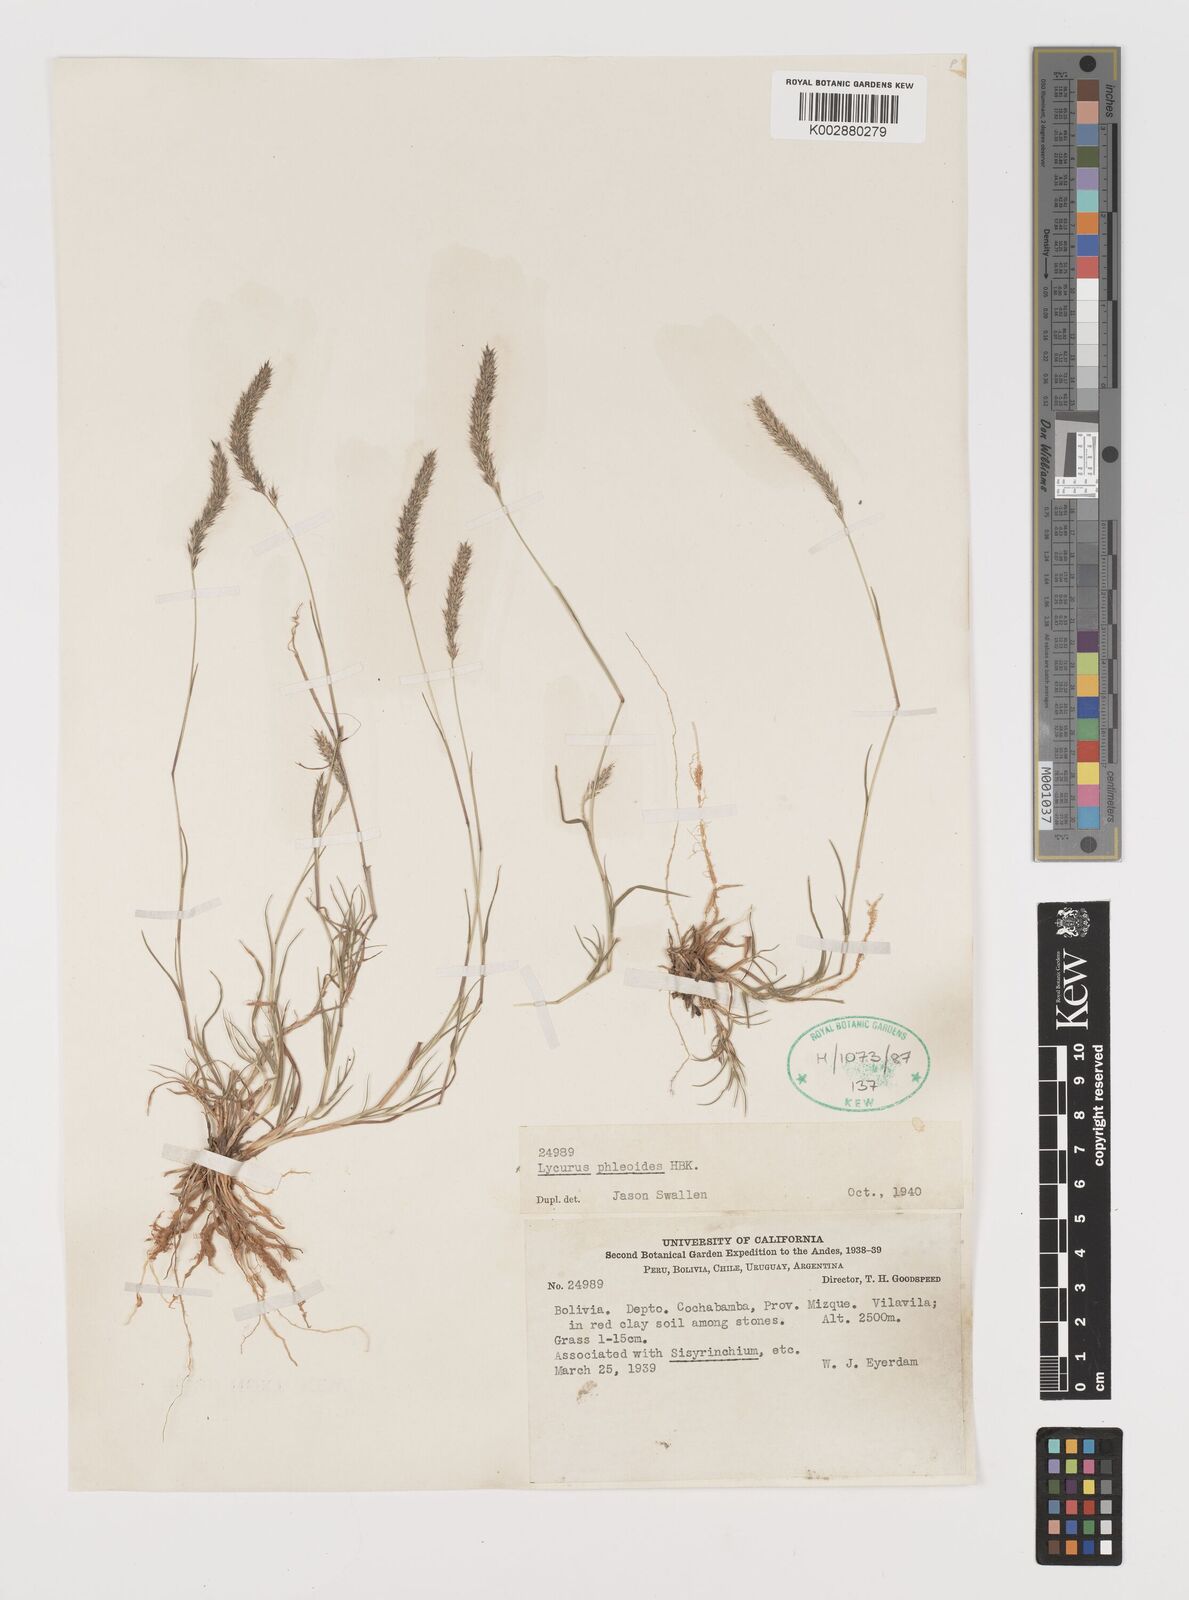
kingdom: Plantae
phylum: Tracheophyta
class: Liliopsida
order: Poales
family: Poaceae
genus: Muhlenbergia
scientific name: Muhlenbergia phleoides
